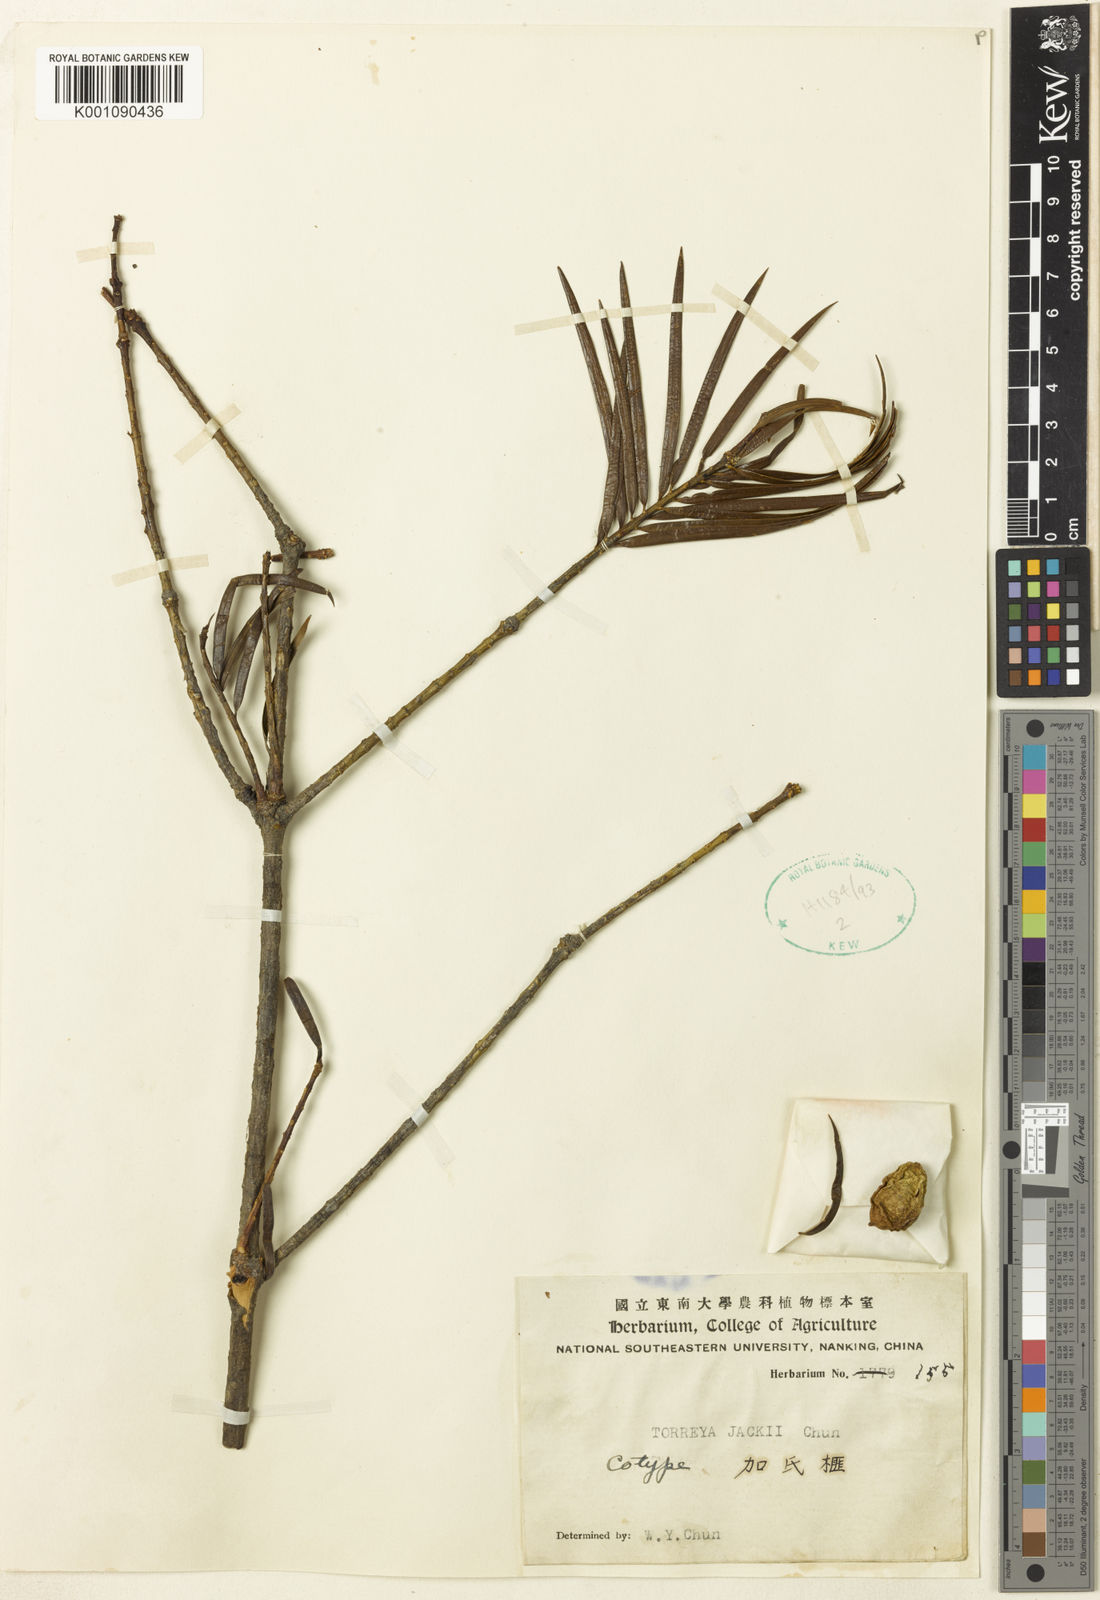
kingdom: Plantae
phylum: Tracheophyta
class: Pinopsida
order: Pinales
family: Taxaceae
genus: Torreya
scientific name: Torreya jackii
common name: Jack's nutmeg tree
